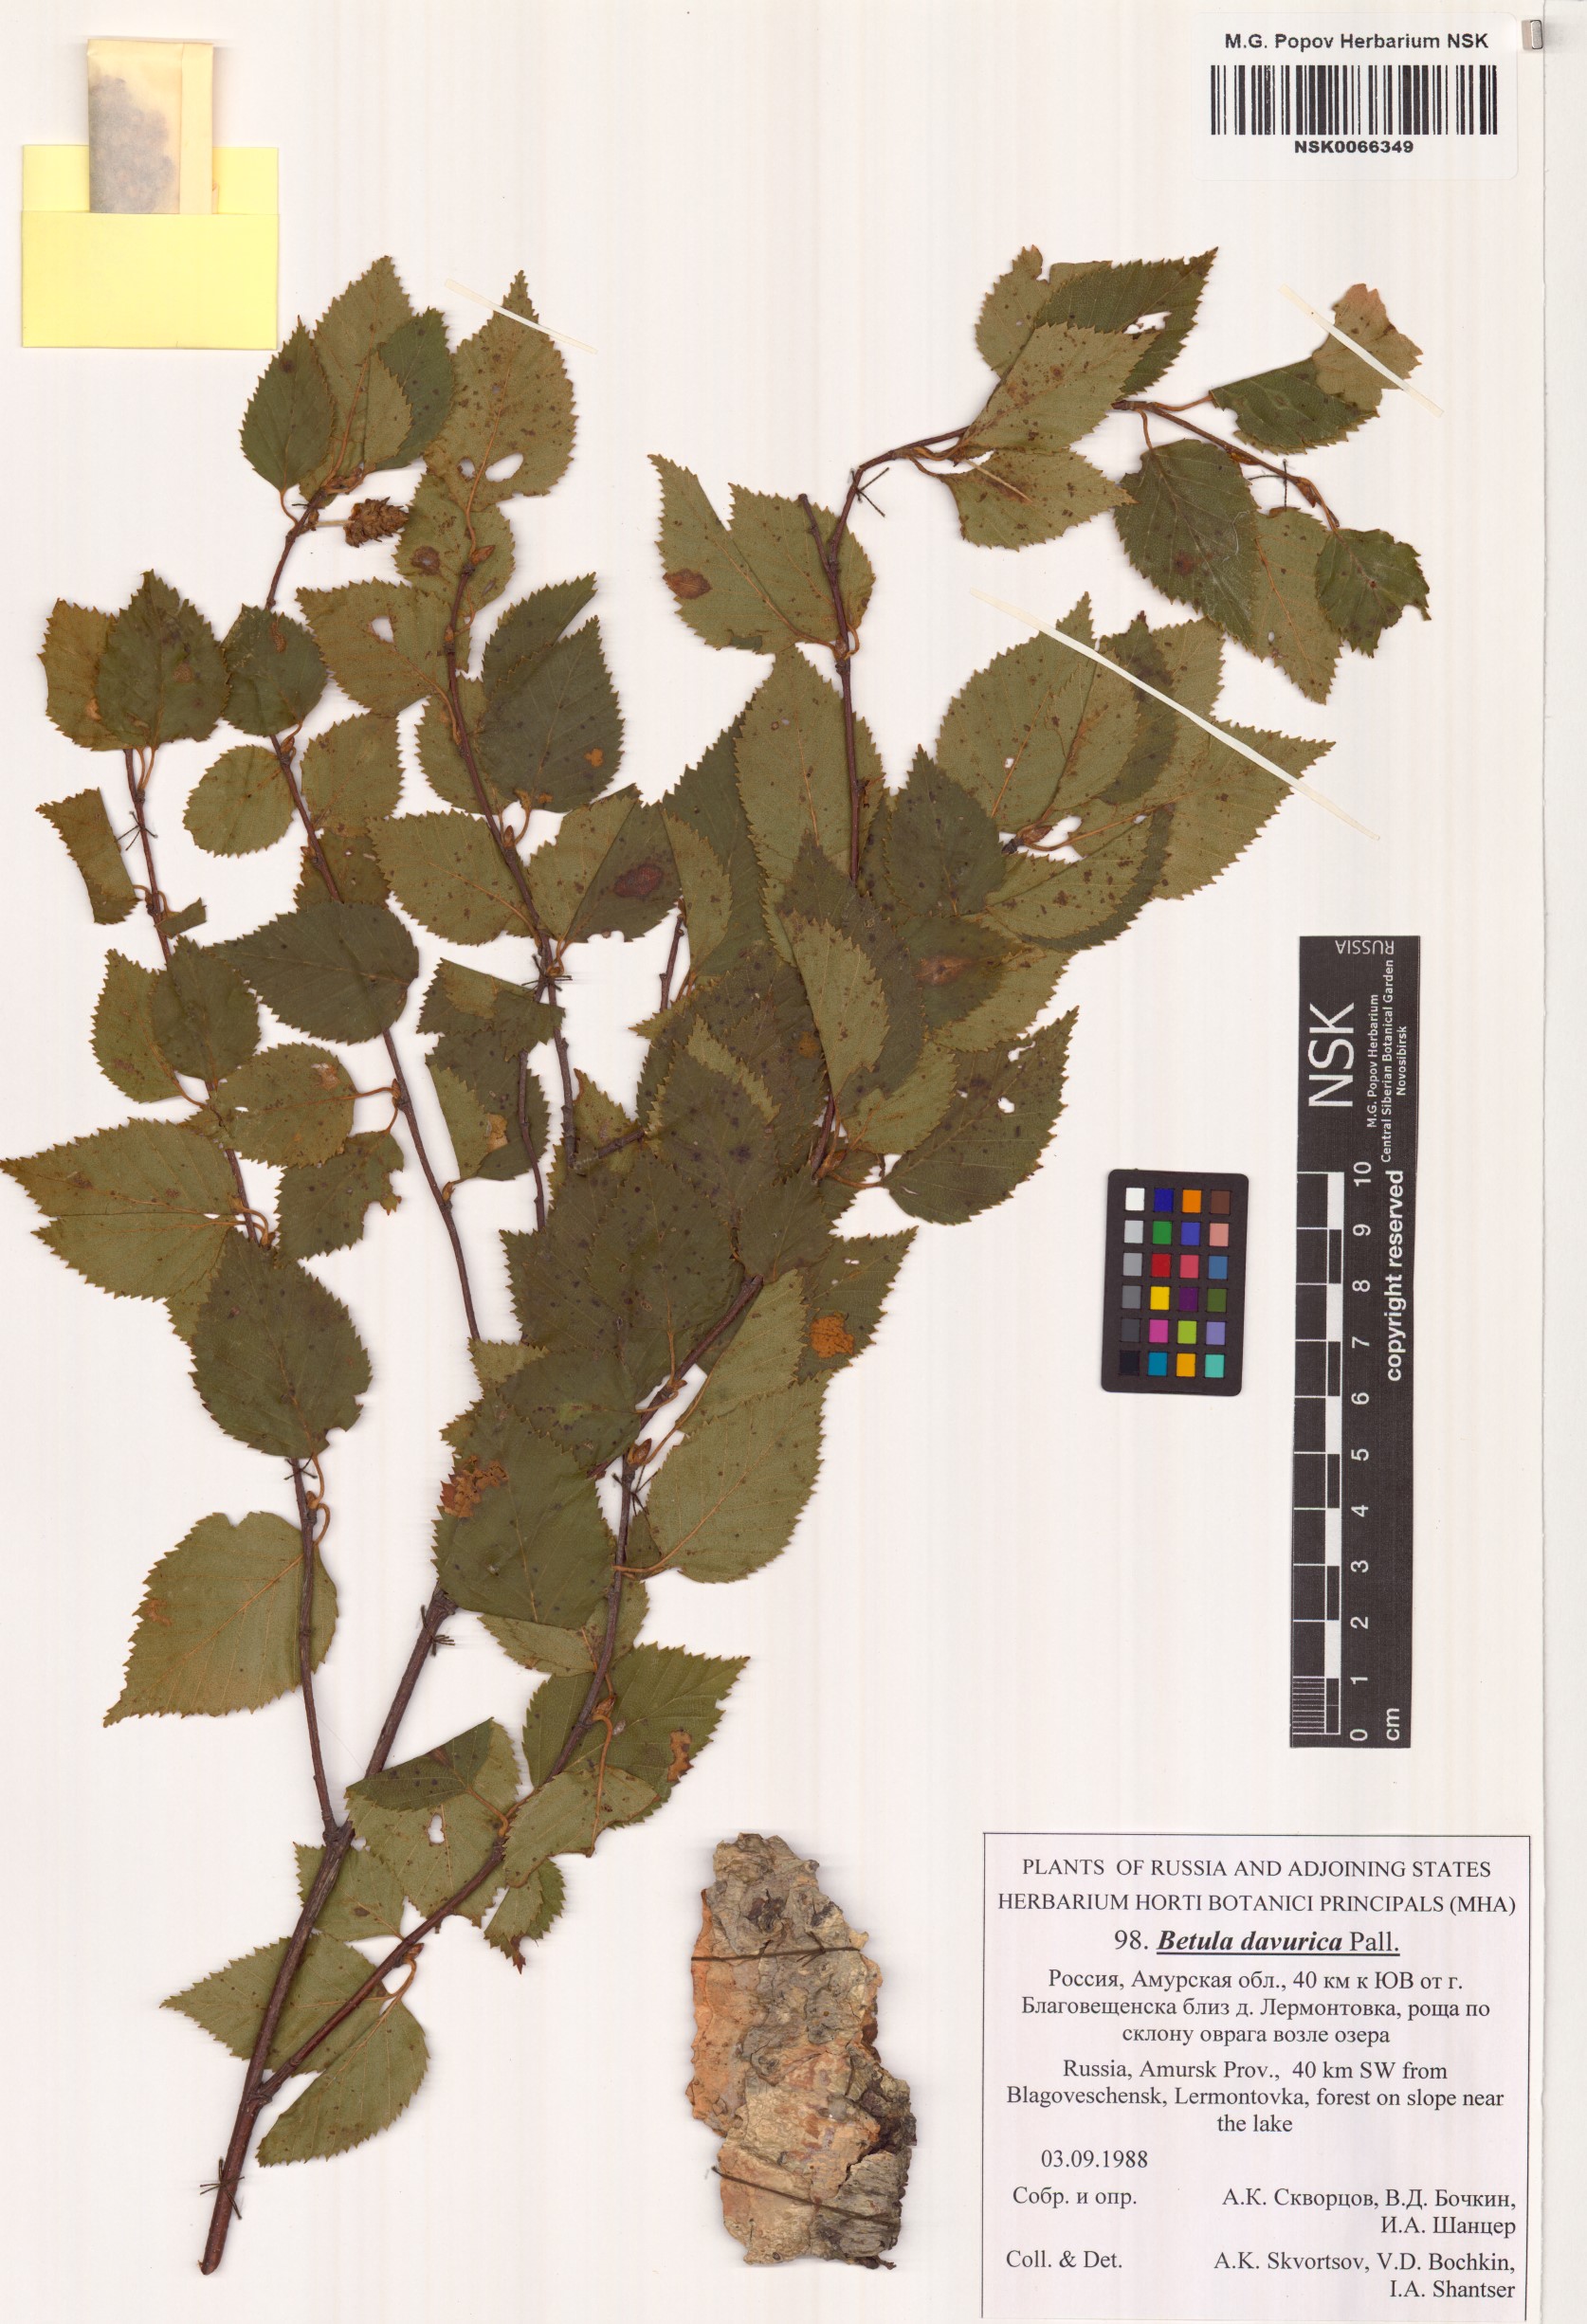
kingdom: Plantae
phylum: Tracheophyta
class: Magnoliopsida
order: Fagales
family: Betulaceae
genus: Betula
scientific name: Betula dahurica
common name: Asian black birch
